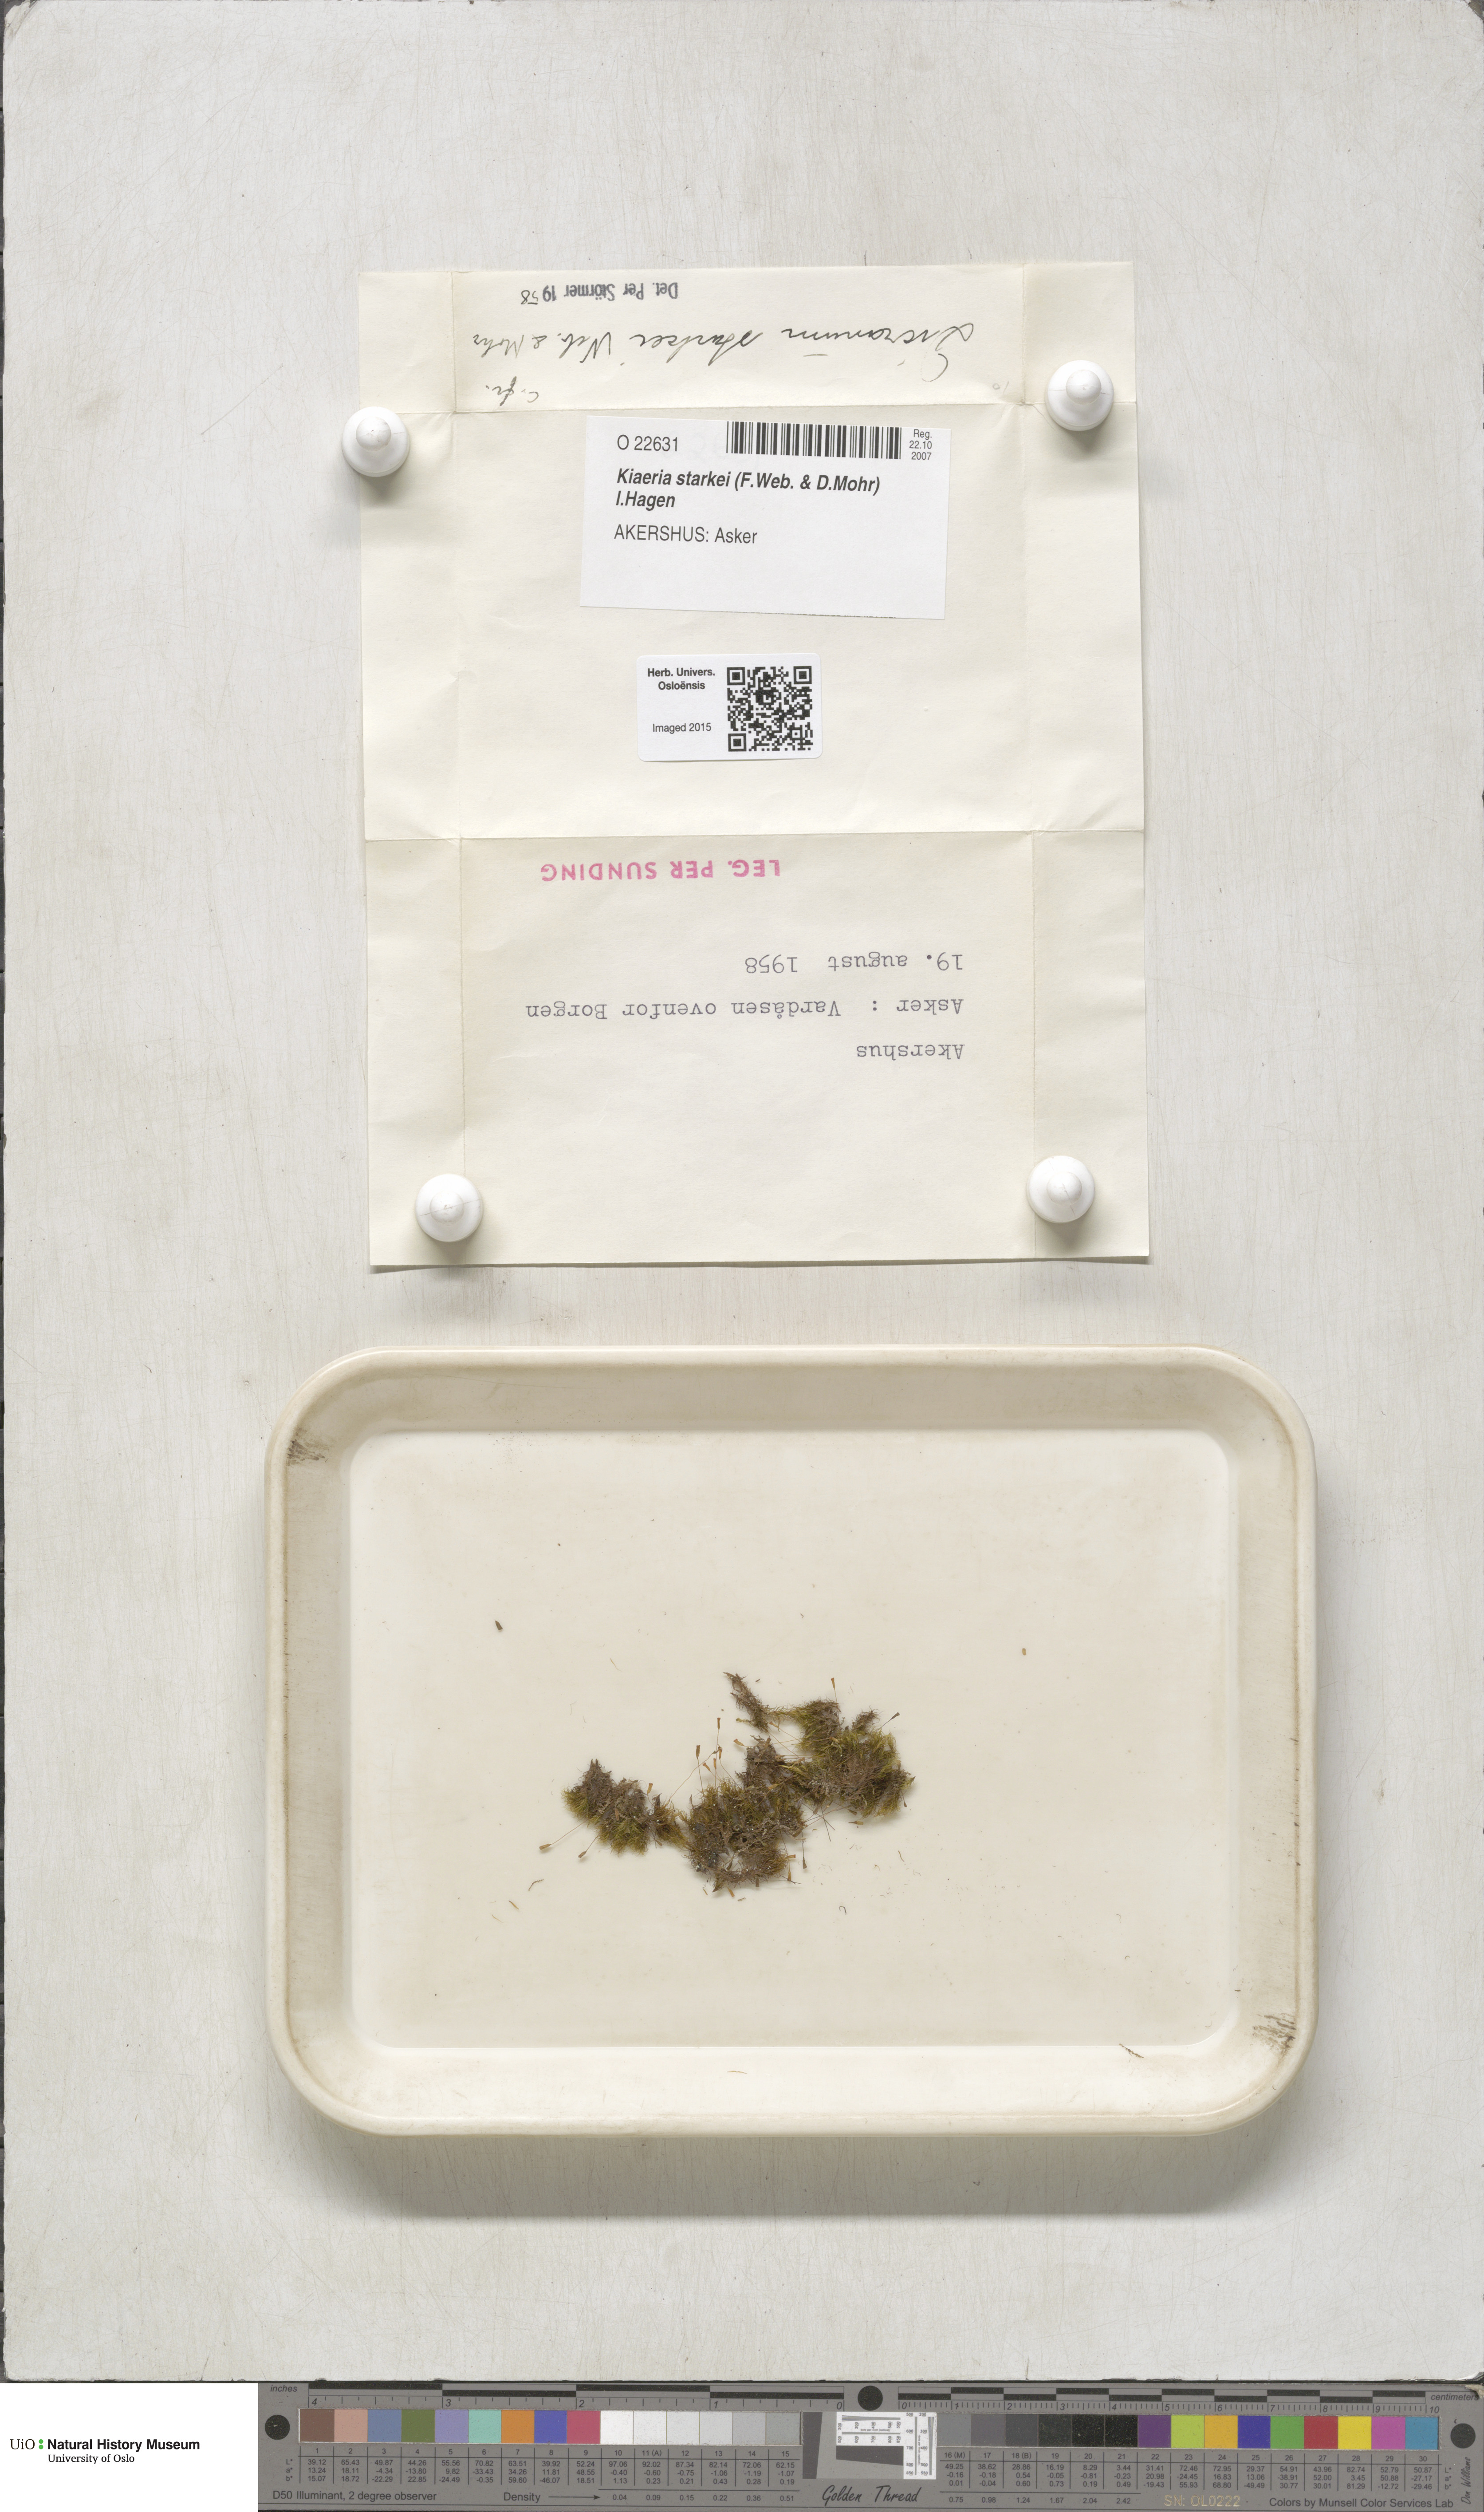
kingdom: Plantae
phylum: Bryophyta
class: Bryopsida
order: Dicranales
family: Rhabdoweisiaceae
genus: Arctoa
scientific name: Arctoa starkei
